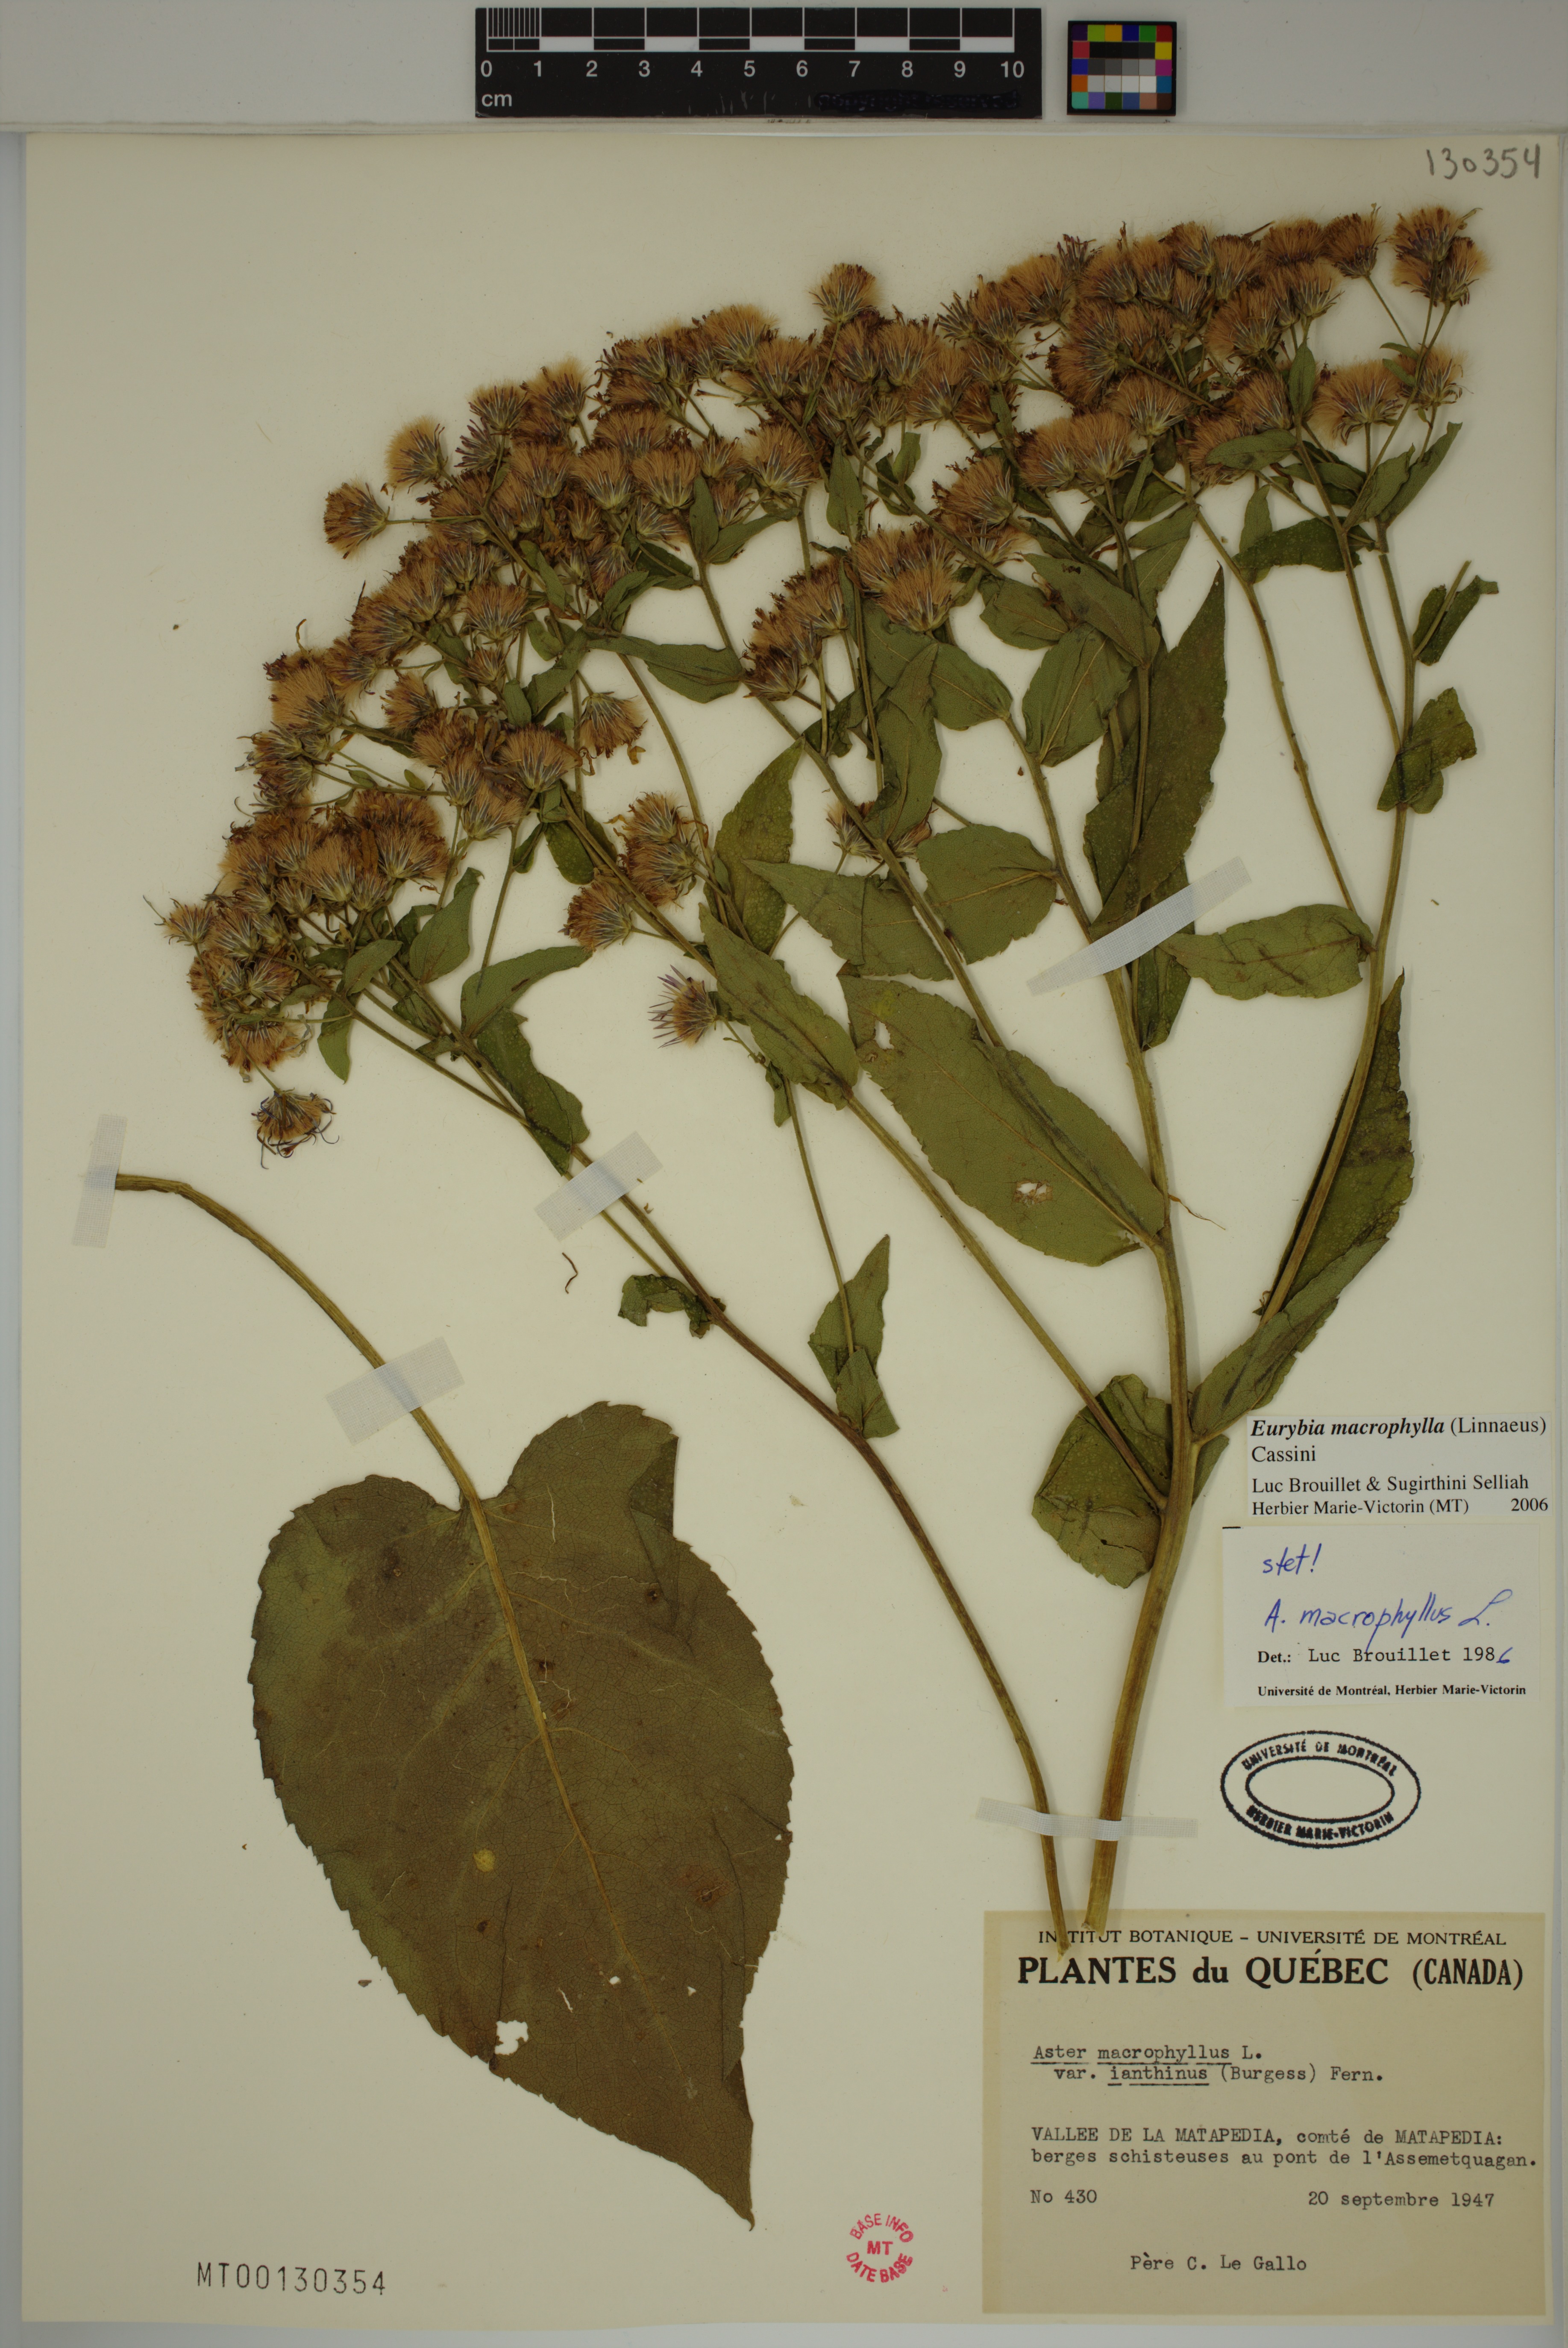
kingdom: Plantae
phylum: Tracheophyta
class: Magnoliopsida
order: Asterales
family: Asteraceae
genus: Eurybia
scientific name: Eurybia macrophylla
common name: Big-leaved aster
